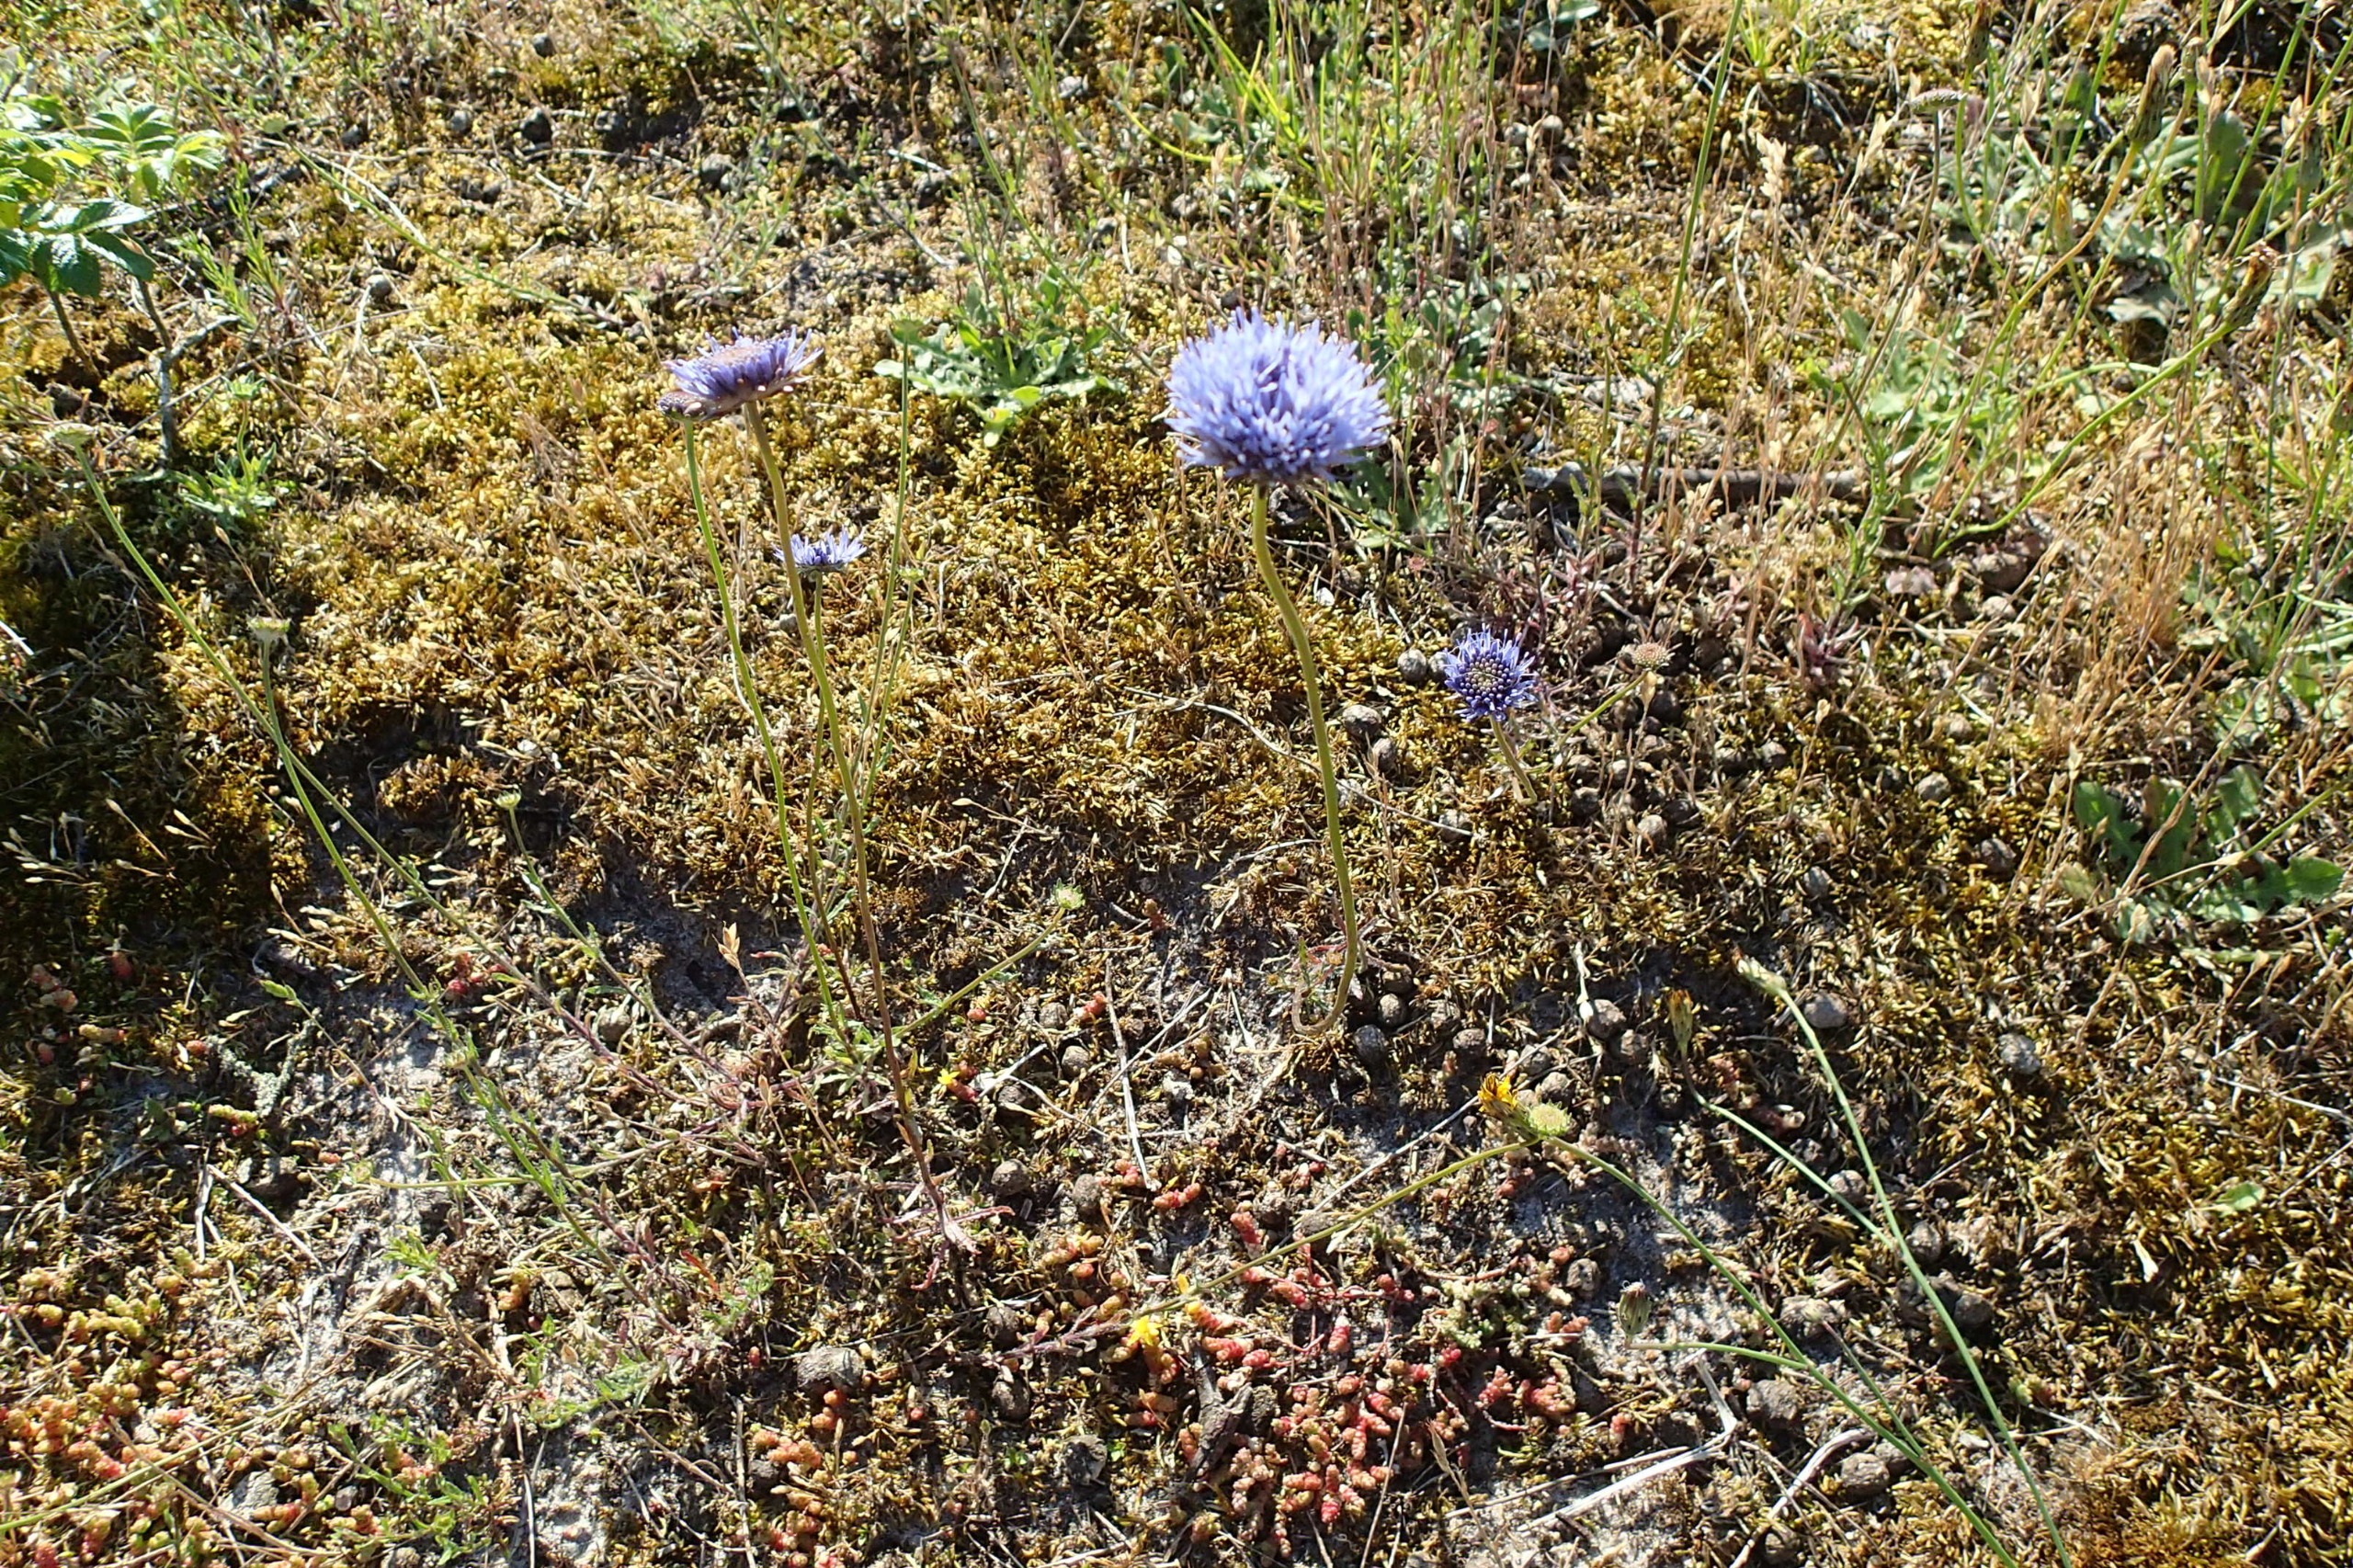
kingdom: Plantae
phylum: Tracheophyta
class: Magnoliopsida
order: Asterales
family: Campanulaceae
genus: Jasione
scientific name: Jasione montana
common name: Blåmunke
